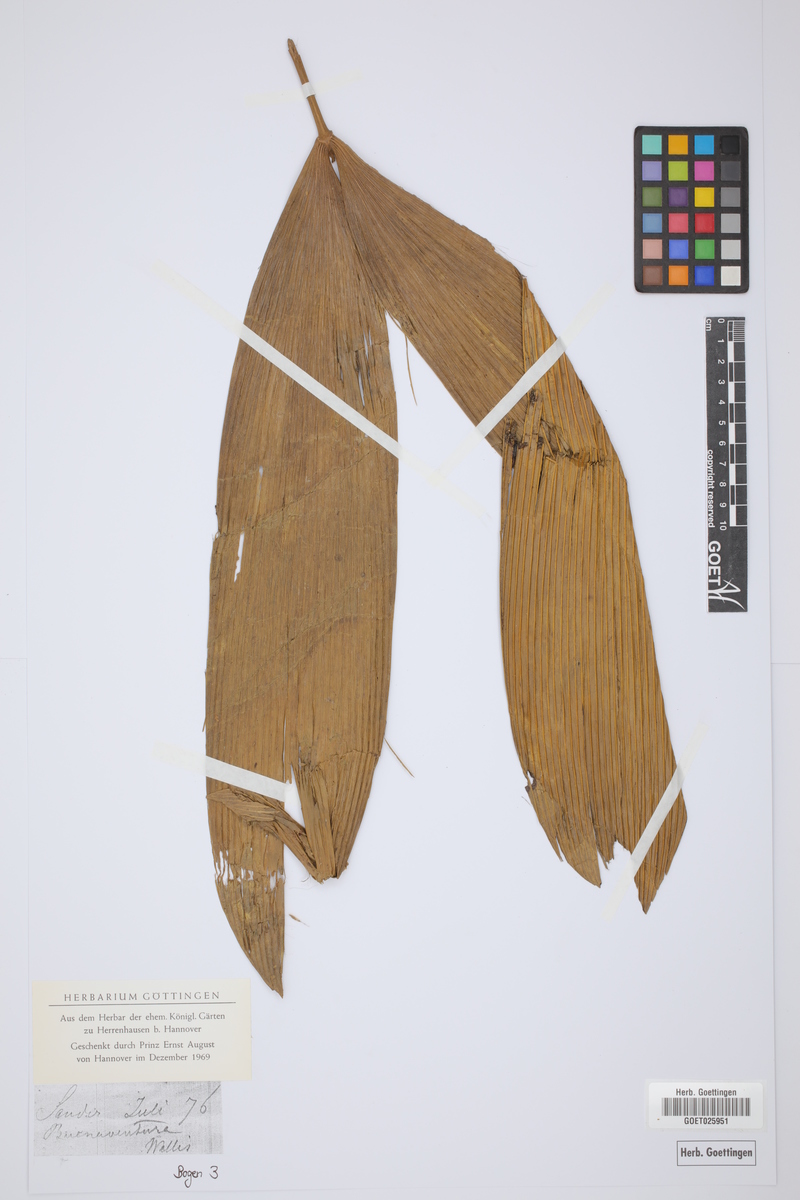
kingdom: Plantae
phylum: Tracheophyta
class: Cycadopsida
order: Cycadales
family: Cycadaceae
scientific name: Cycadaceae
